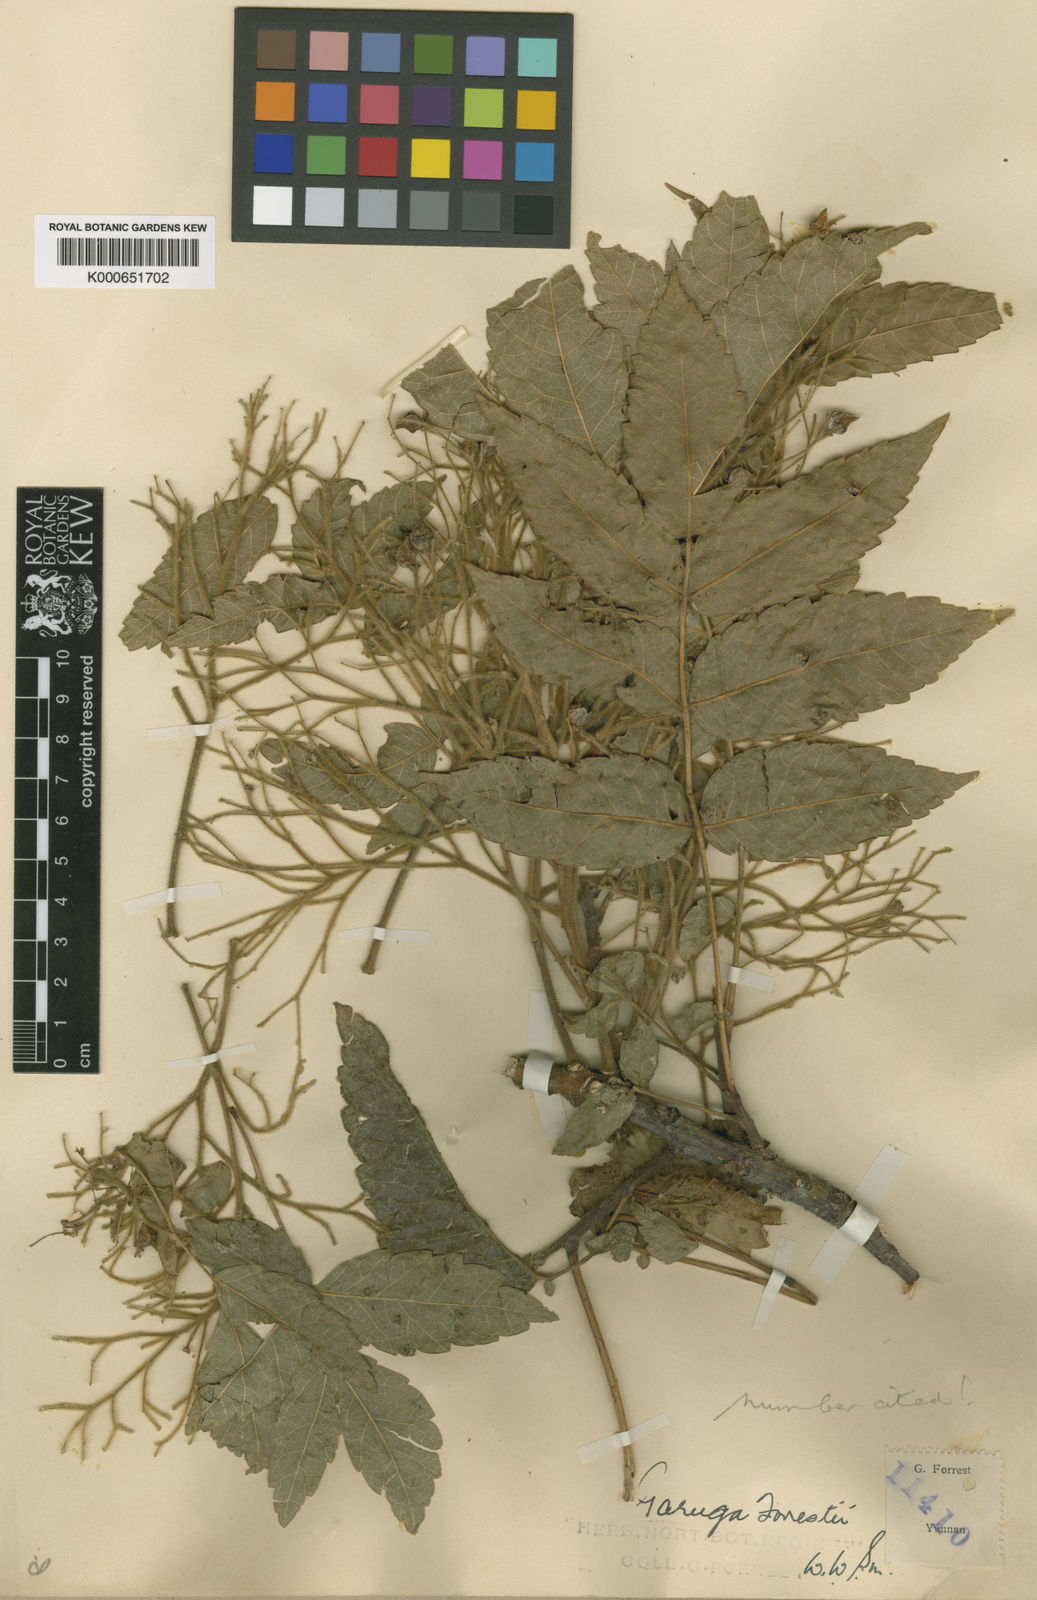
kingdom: Plantae
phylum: Tracheophyta
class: Magnoliopsida
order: Sapindales
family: Burseraceae
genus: Garuga
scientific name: Garuga forrestii
